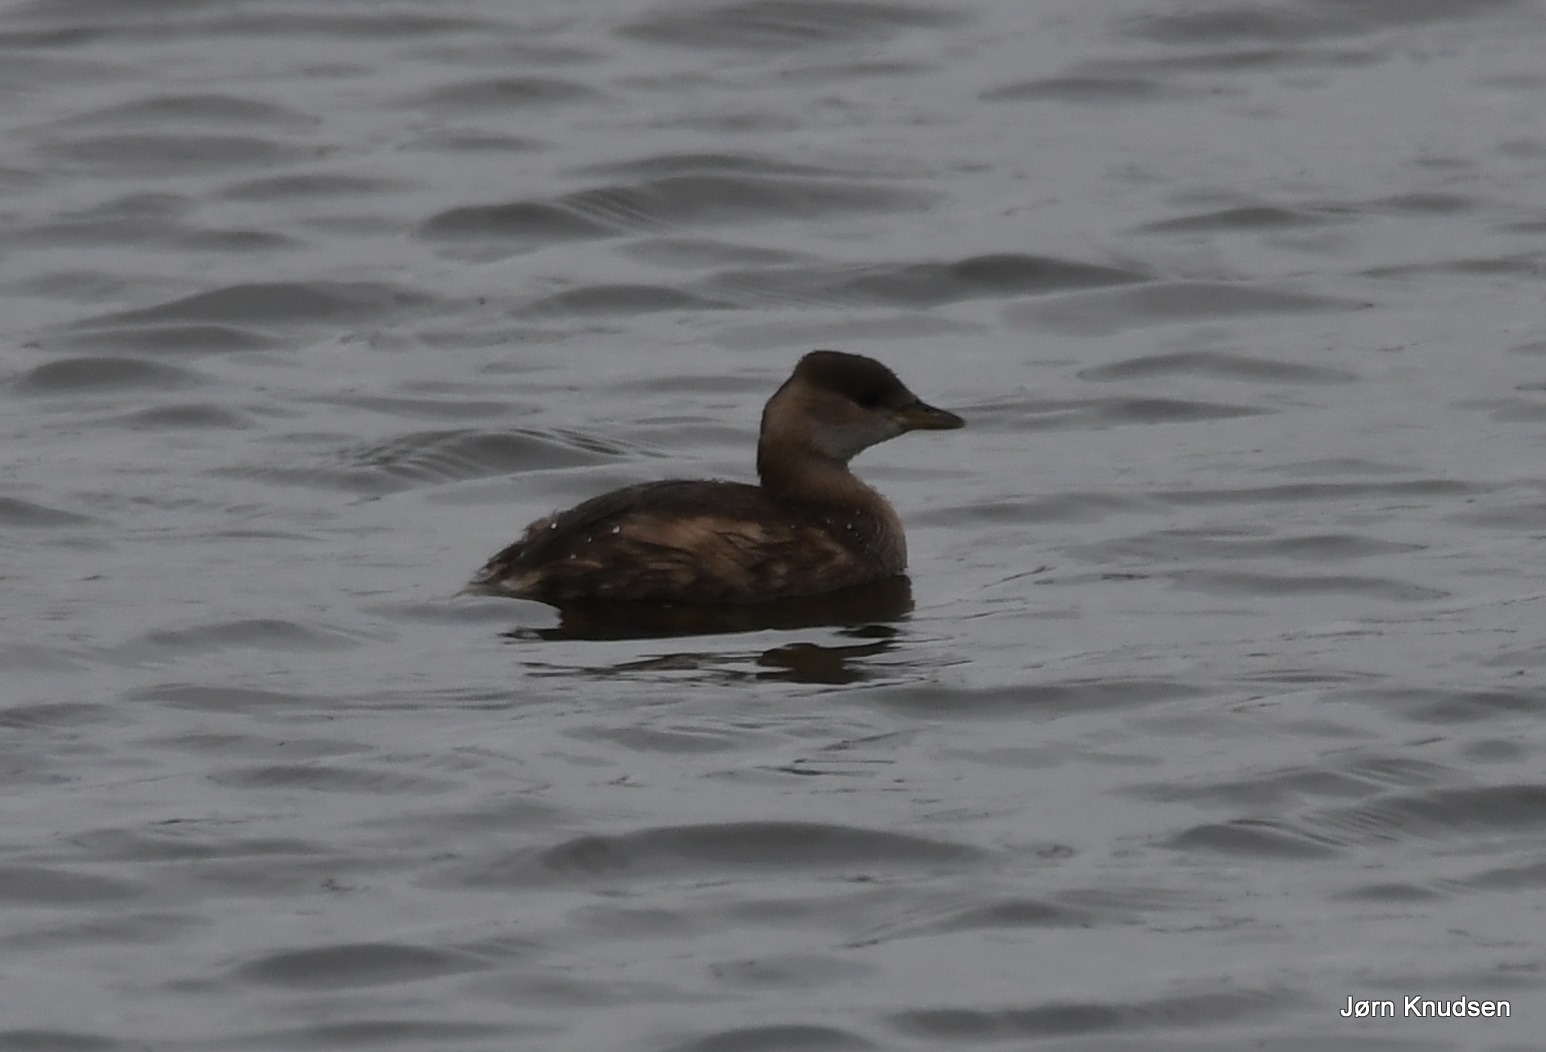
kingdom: Animalia
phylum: Chordata
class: Aves
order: Podicipediformes
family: Podicipedidae
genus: Tachybaptus
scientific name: Tachybaptus ruficollis
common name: Lille lappedykker
